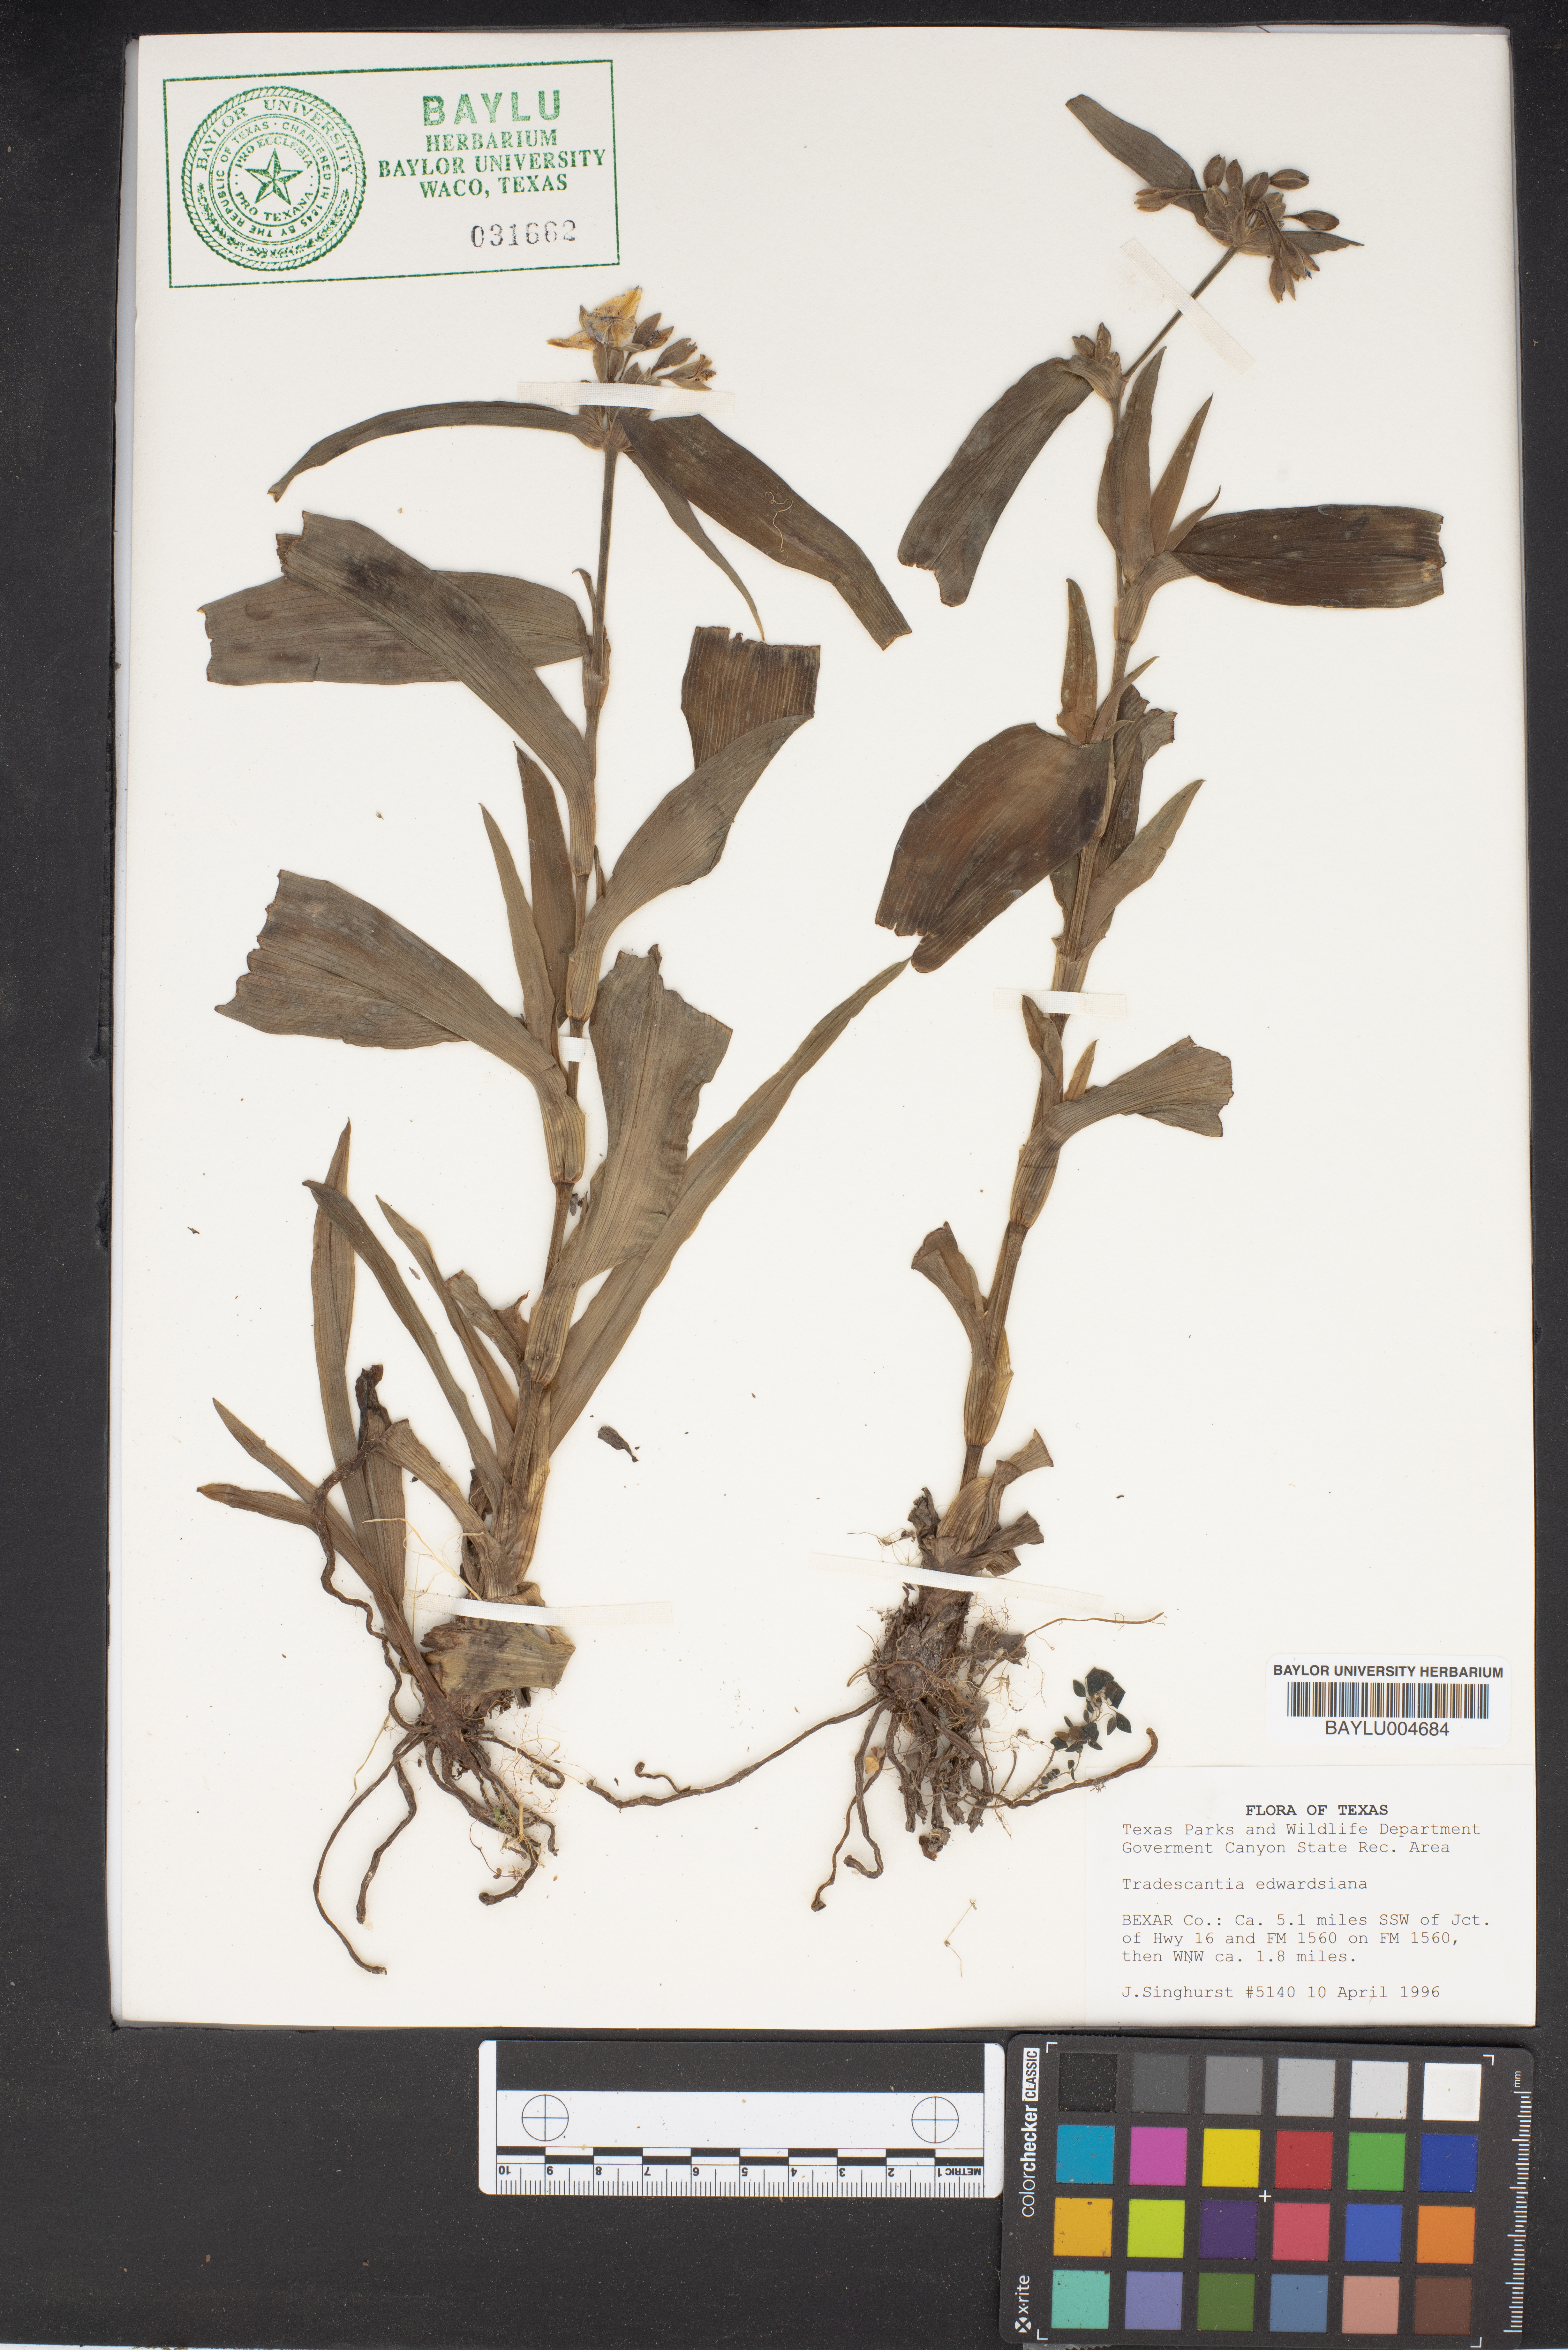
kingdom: Plantae
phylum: Tracheophyta
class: Liliopsida
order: Commelinales
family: Commelinaceae
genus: Tradescantia
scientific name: Tradescantia edwardsiana
